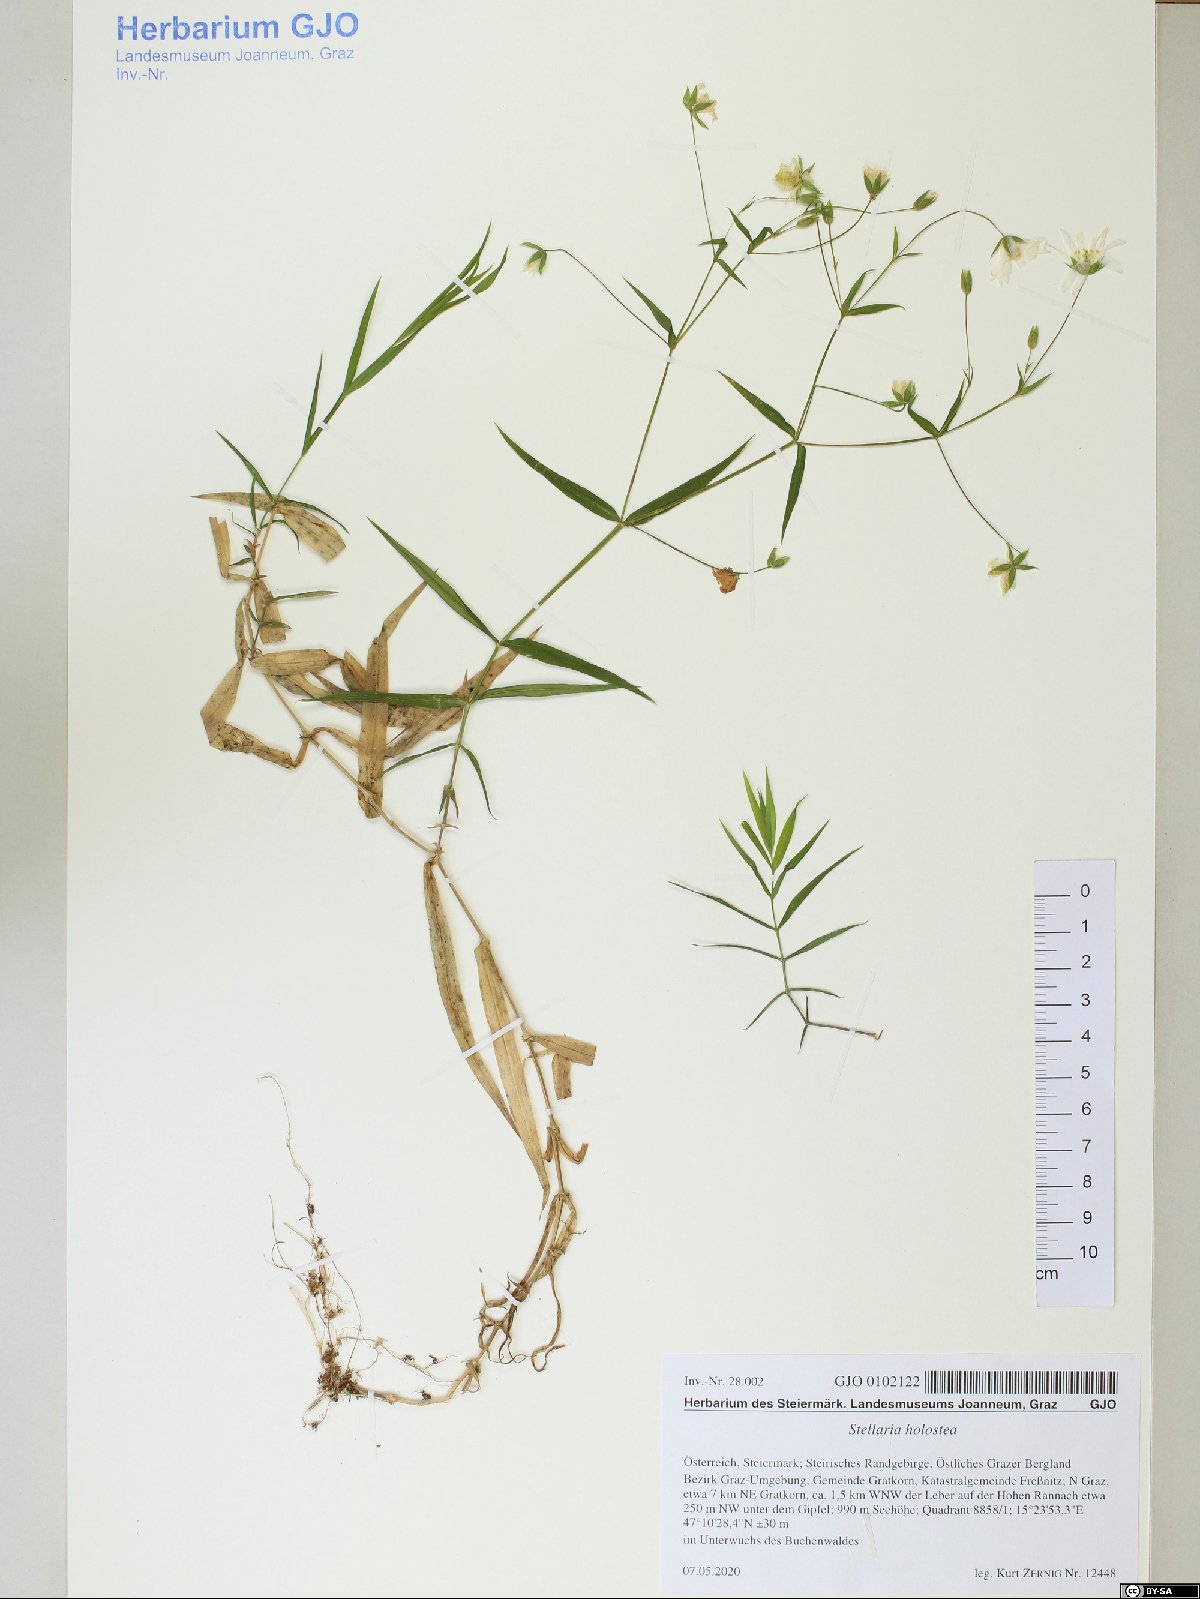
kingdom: Plantae
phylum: Tracheophyta
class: Magnoliopsida
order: Caryophyllales
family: Caryophyllaceae
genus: Rabelera
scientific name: Rabelera holostea
